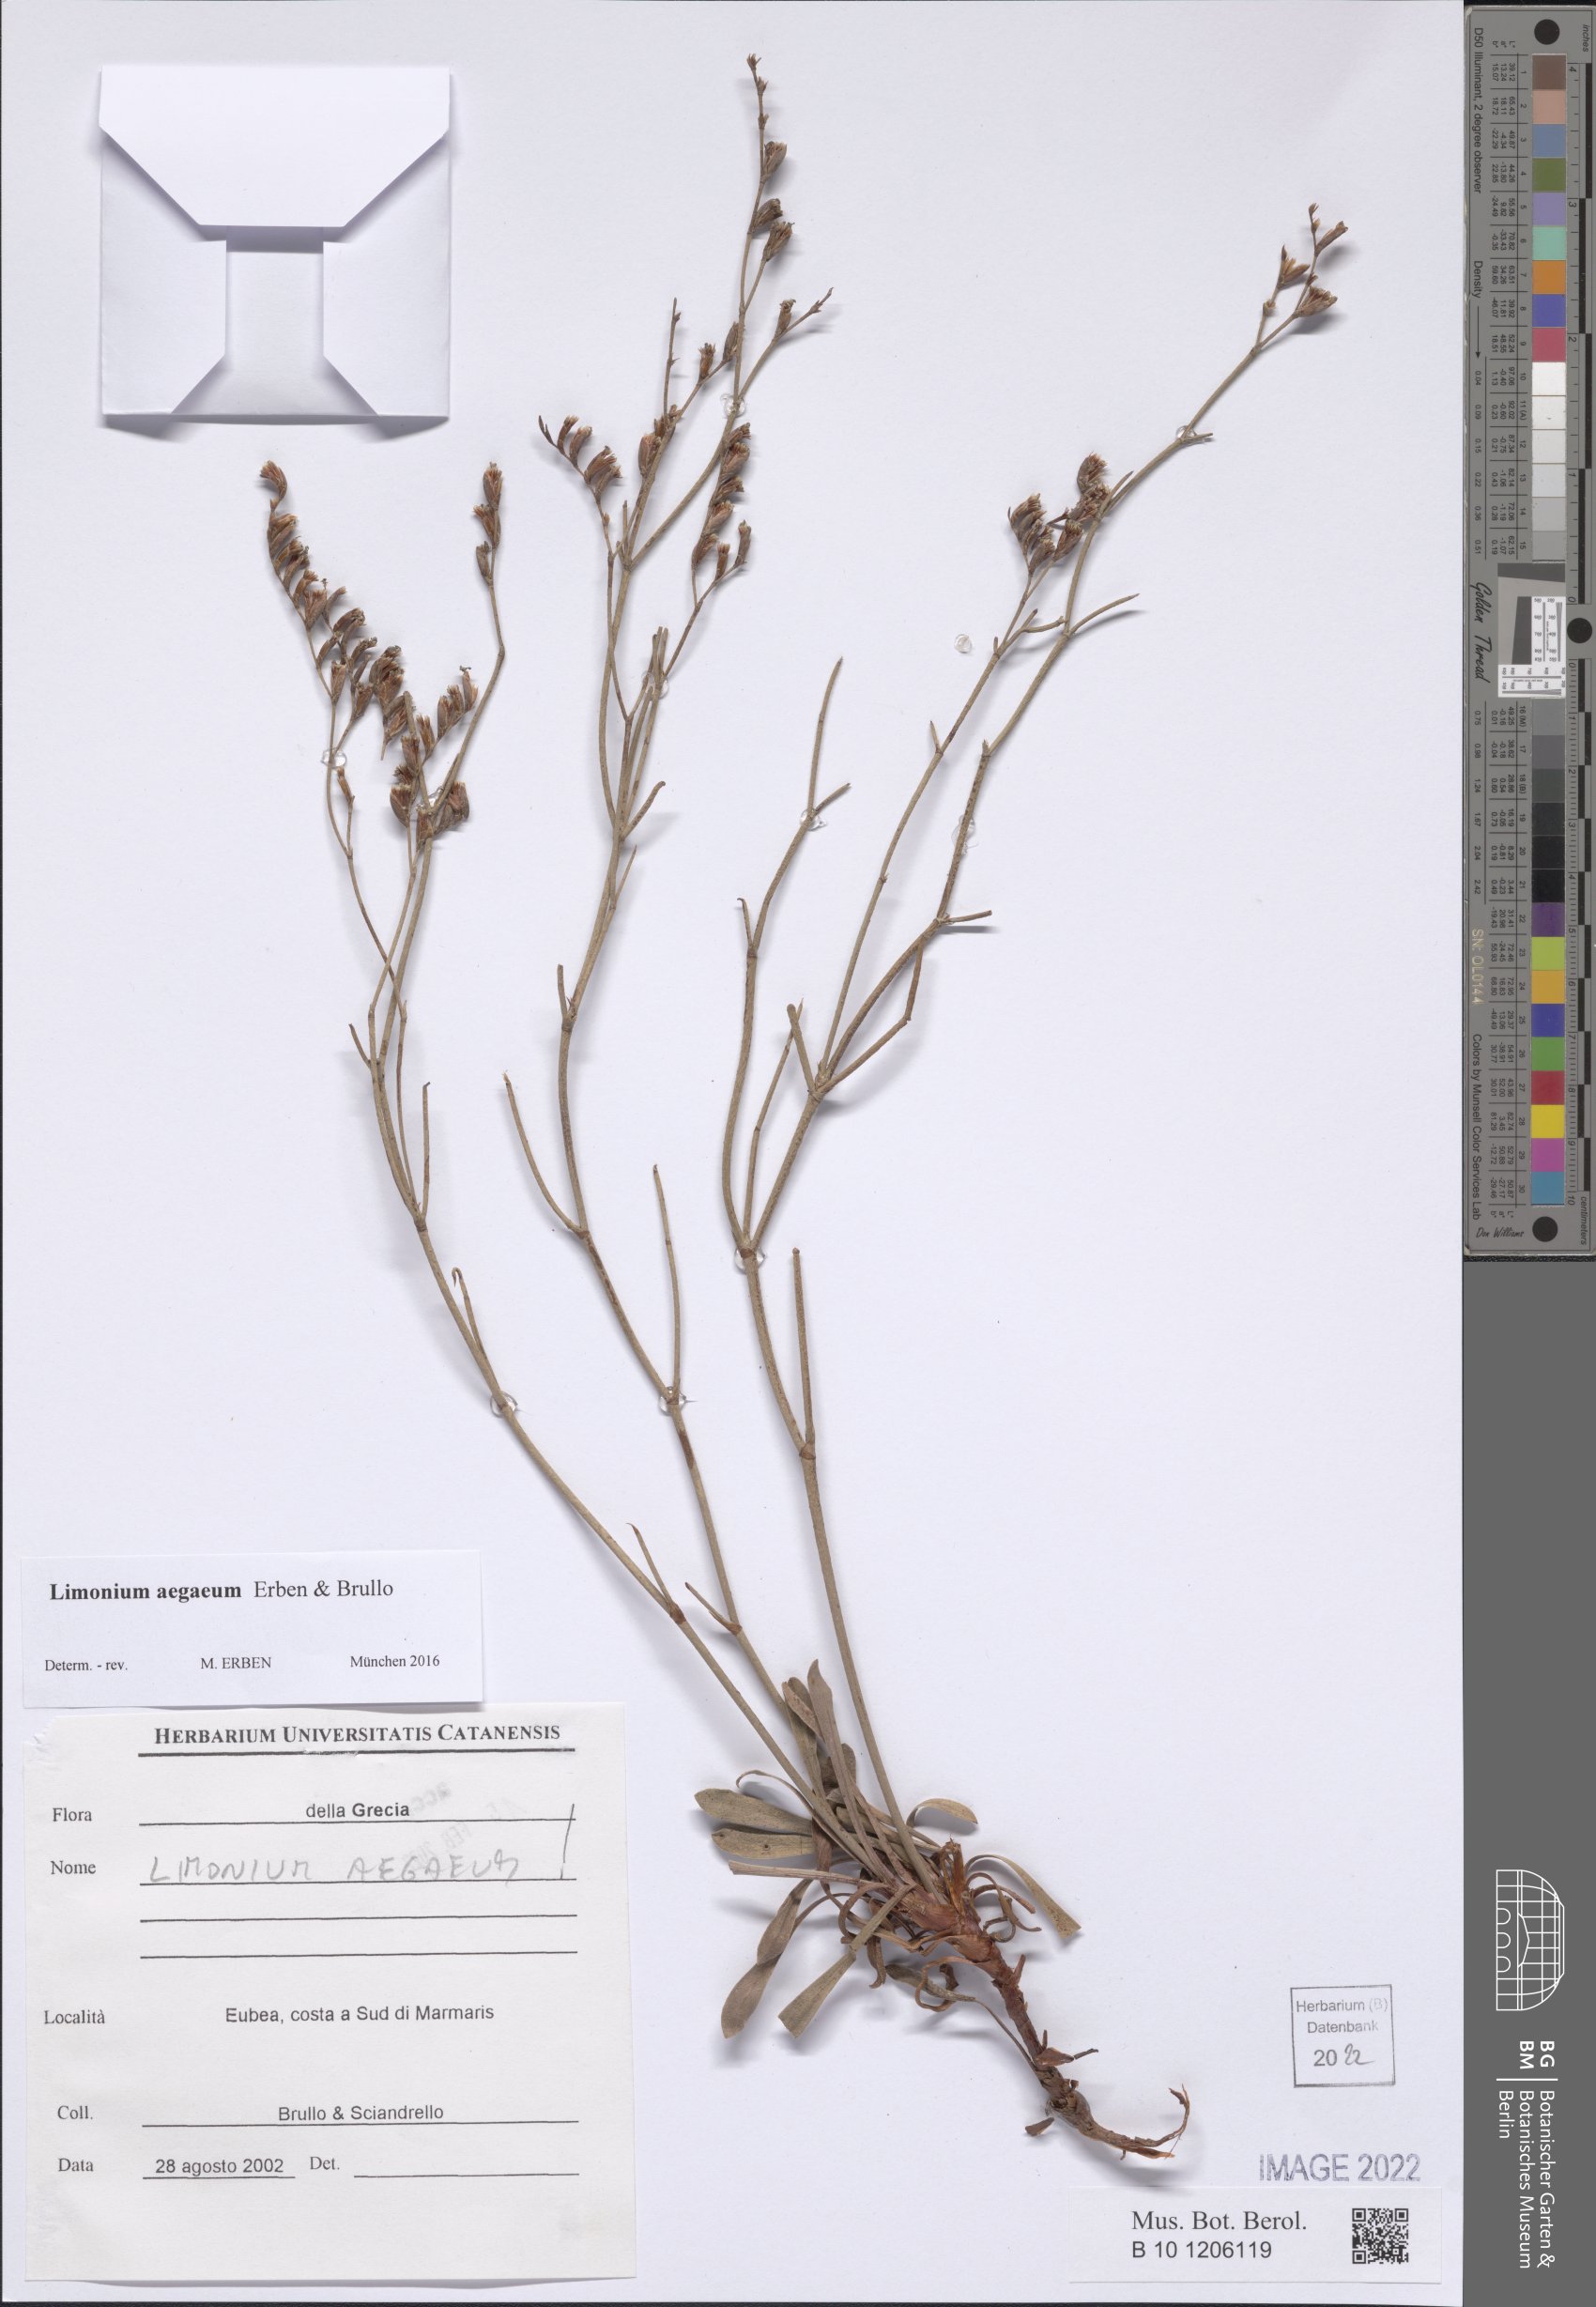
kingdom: Plantae
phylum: Tracheophyta
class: Magnoliopsida
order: Caryophyllales
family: Plumbaginaceae
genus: Limonium
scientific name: Limonium aegaeum
